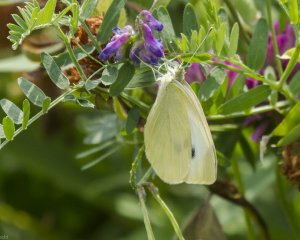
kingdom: Animalia
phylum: Arthropoda
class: Insecta
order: Lepidoptera
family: Pieridae
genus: Pieris
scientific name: Pieris rapae
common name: Cabbage White
